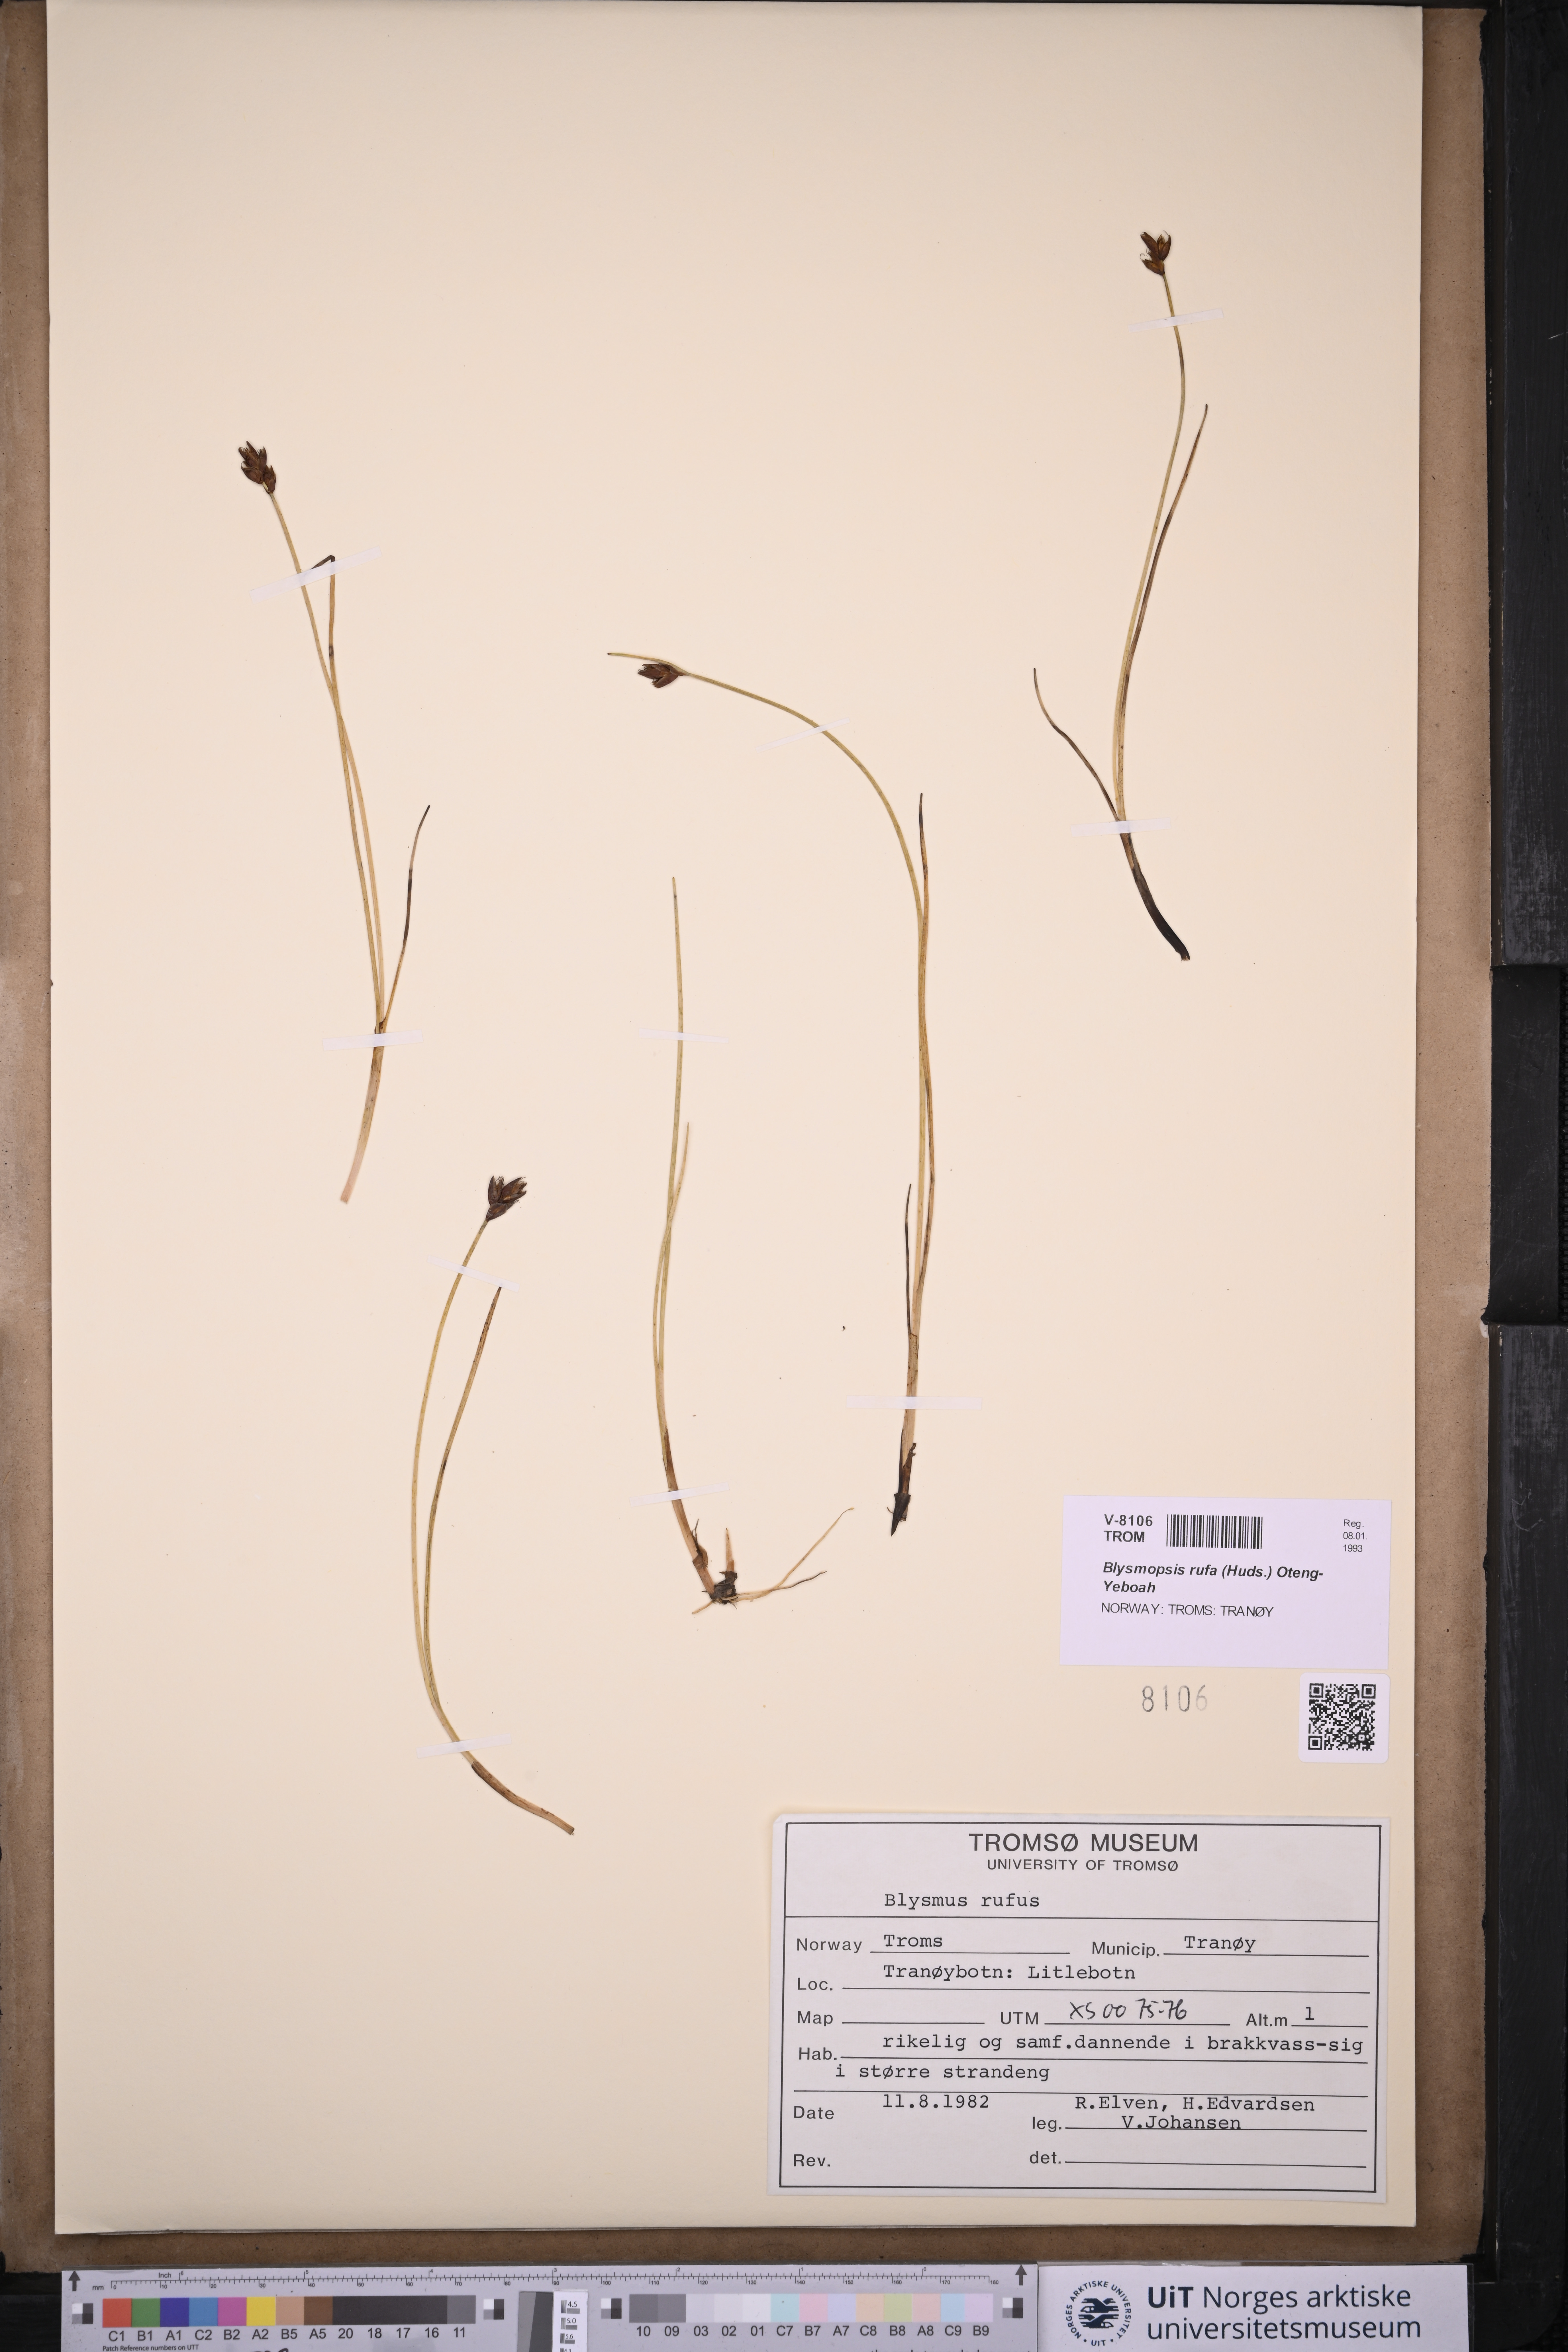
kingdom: Plantae
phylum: Tracheophyta
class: Liliopsida
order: Poales
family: Cyperaceae
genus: Blysmus
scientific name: Blysmus rufus
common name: Saltmarsh flat-sedge
